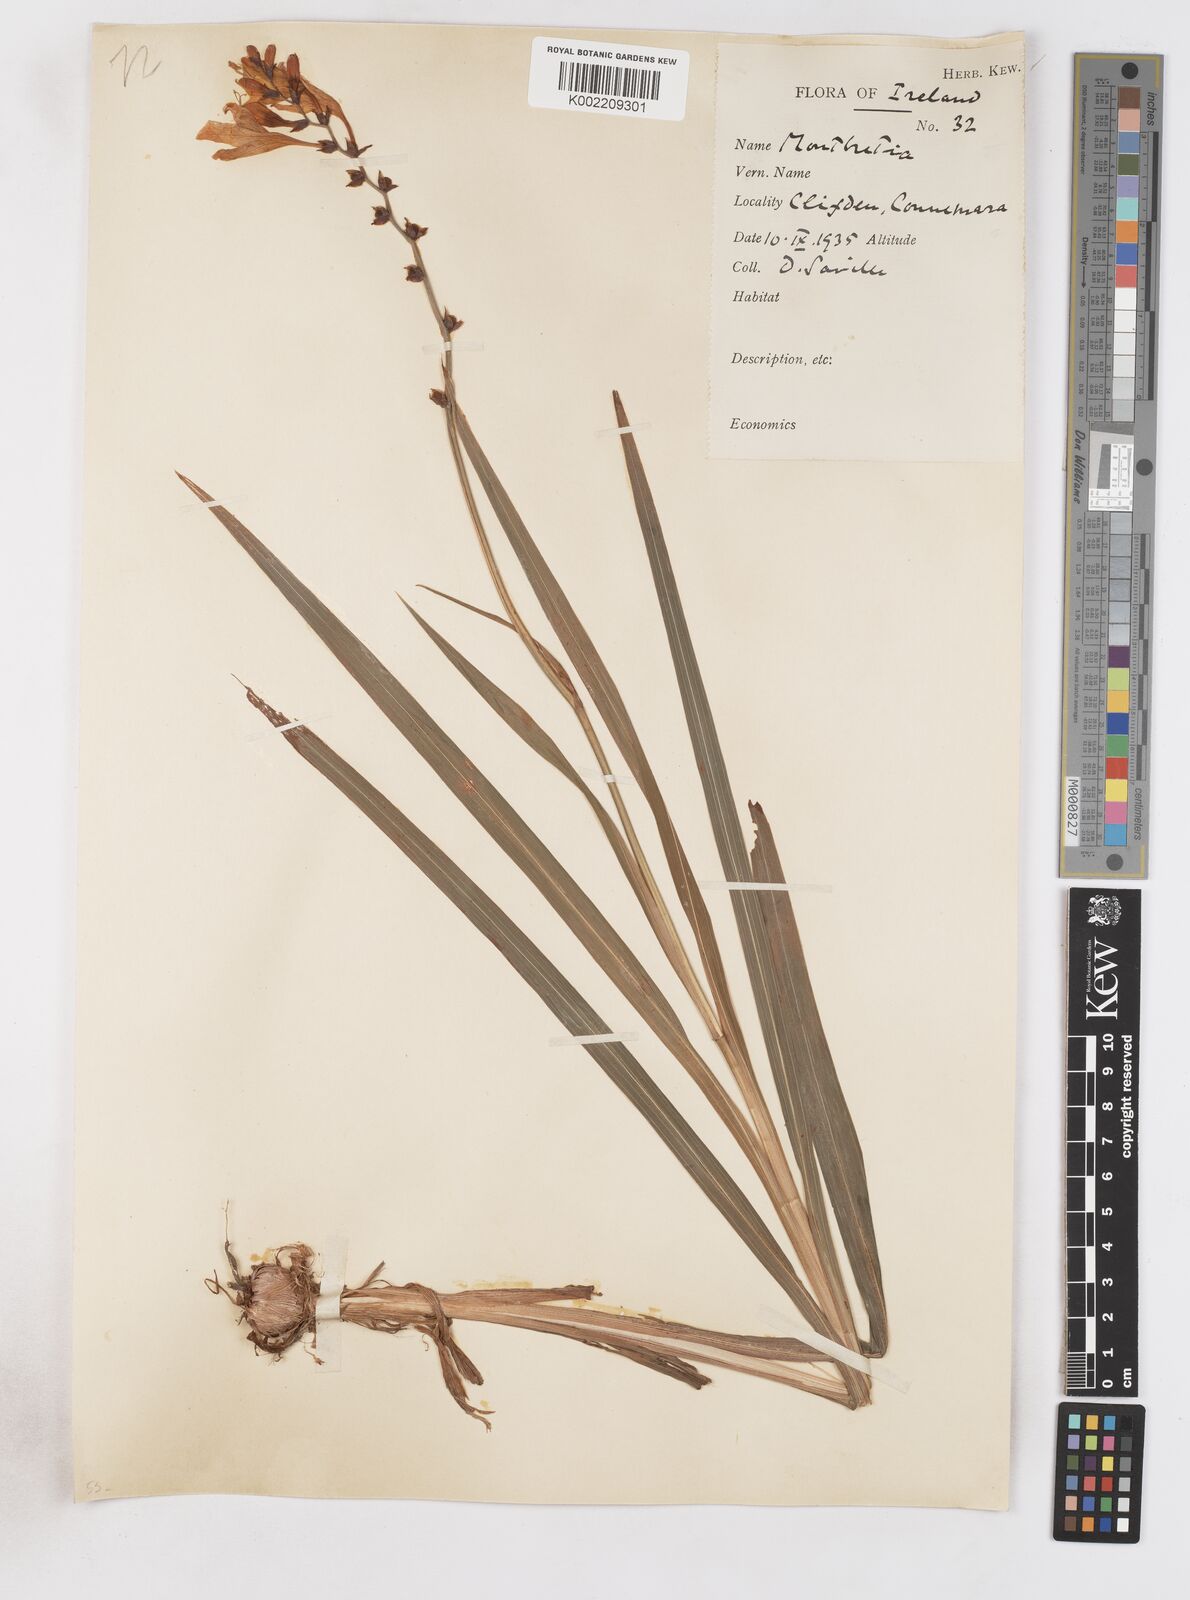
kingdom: Plantae
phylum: Tracheophyta
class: Liliopsida
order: Asparagales
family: Iridaceae
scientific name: Iridaceae
